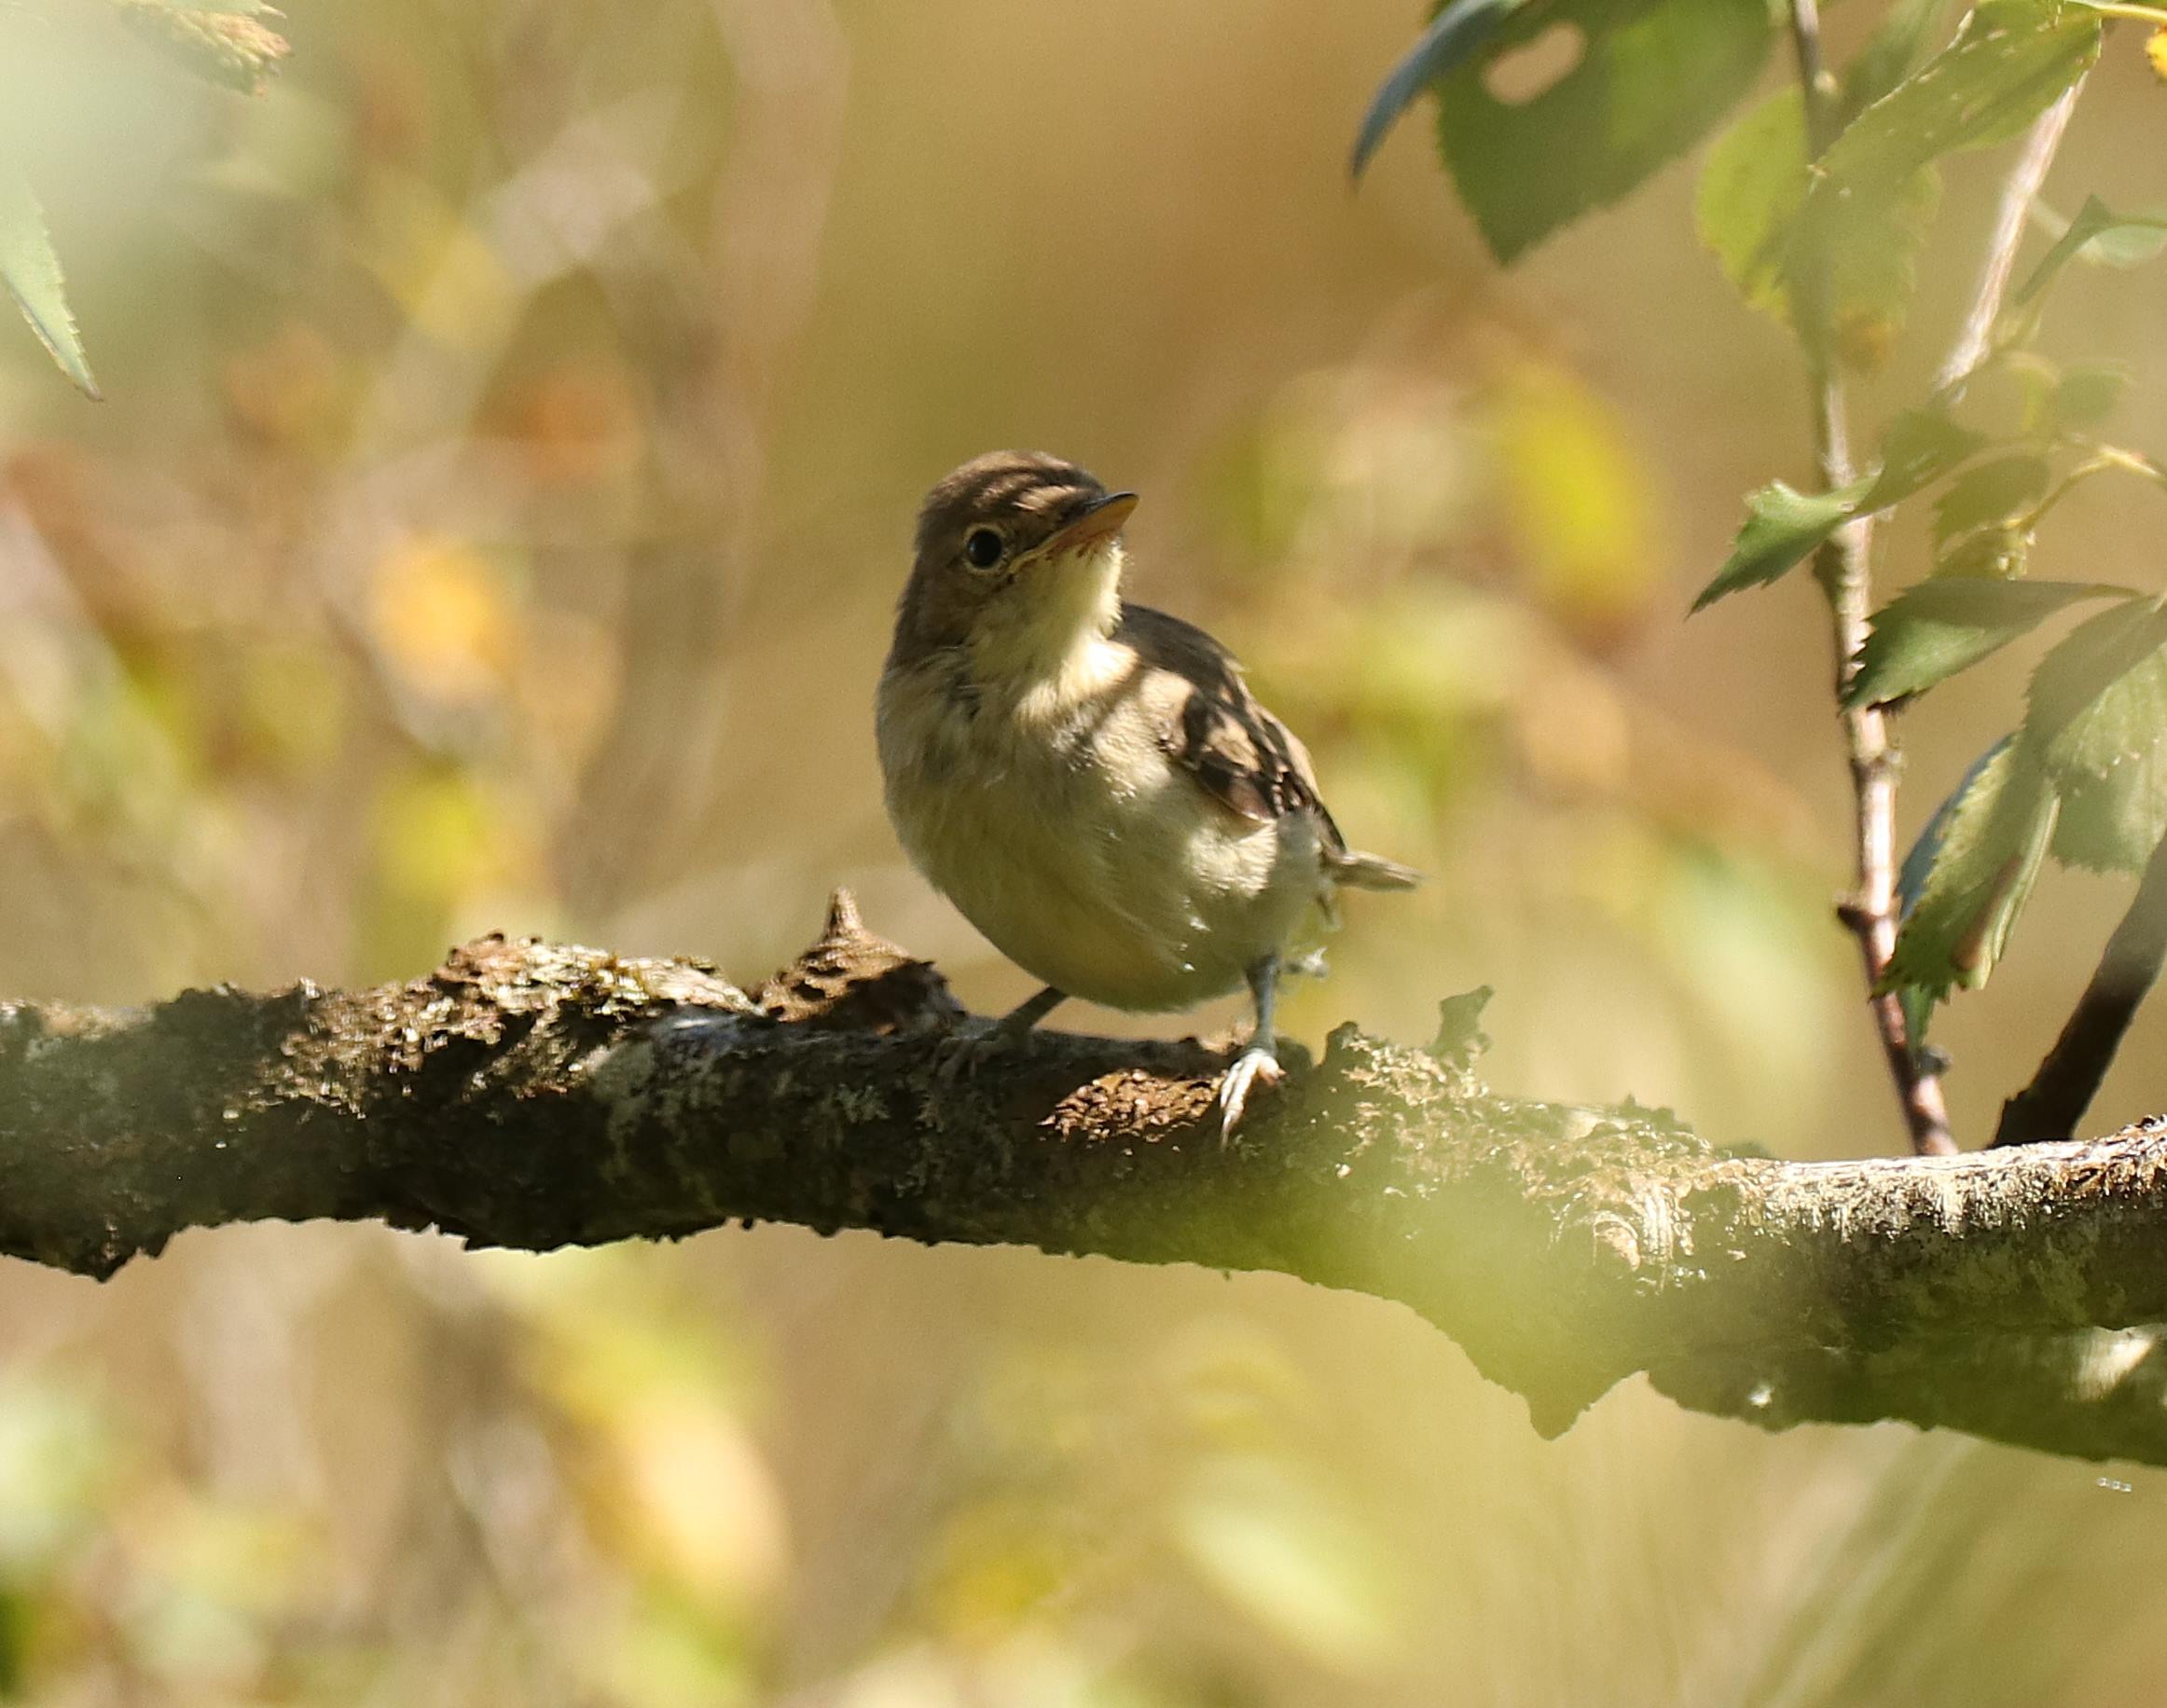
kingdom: Animalia
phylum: Chordata
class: Aves
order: Passeriformes
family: Acrocephalidae
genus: Hippolais
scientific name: Hippolais icterina
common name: Gulbug
